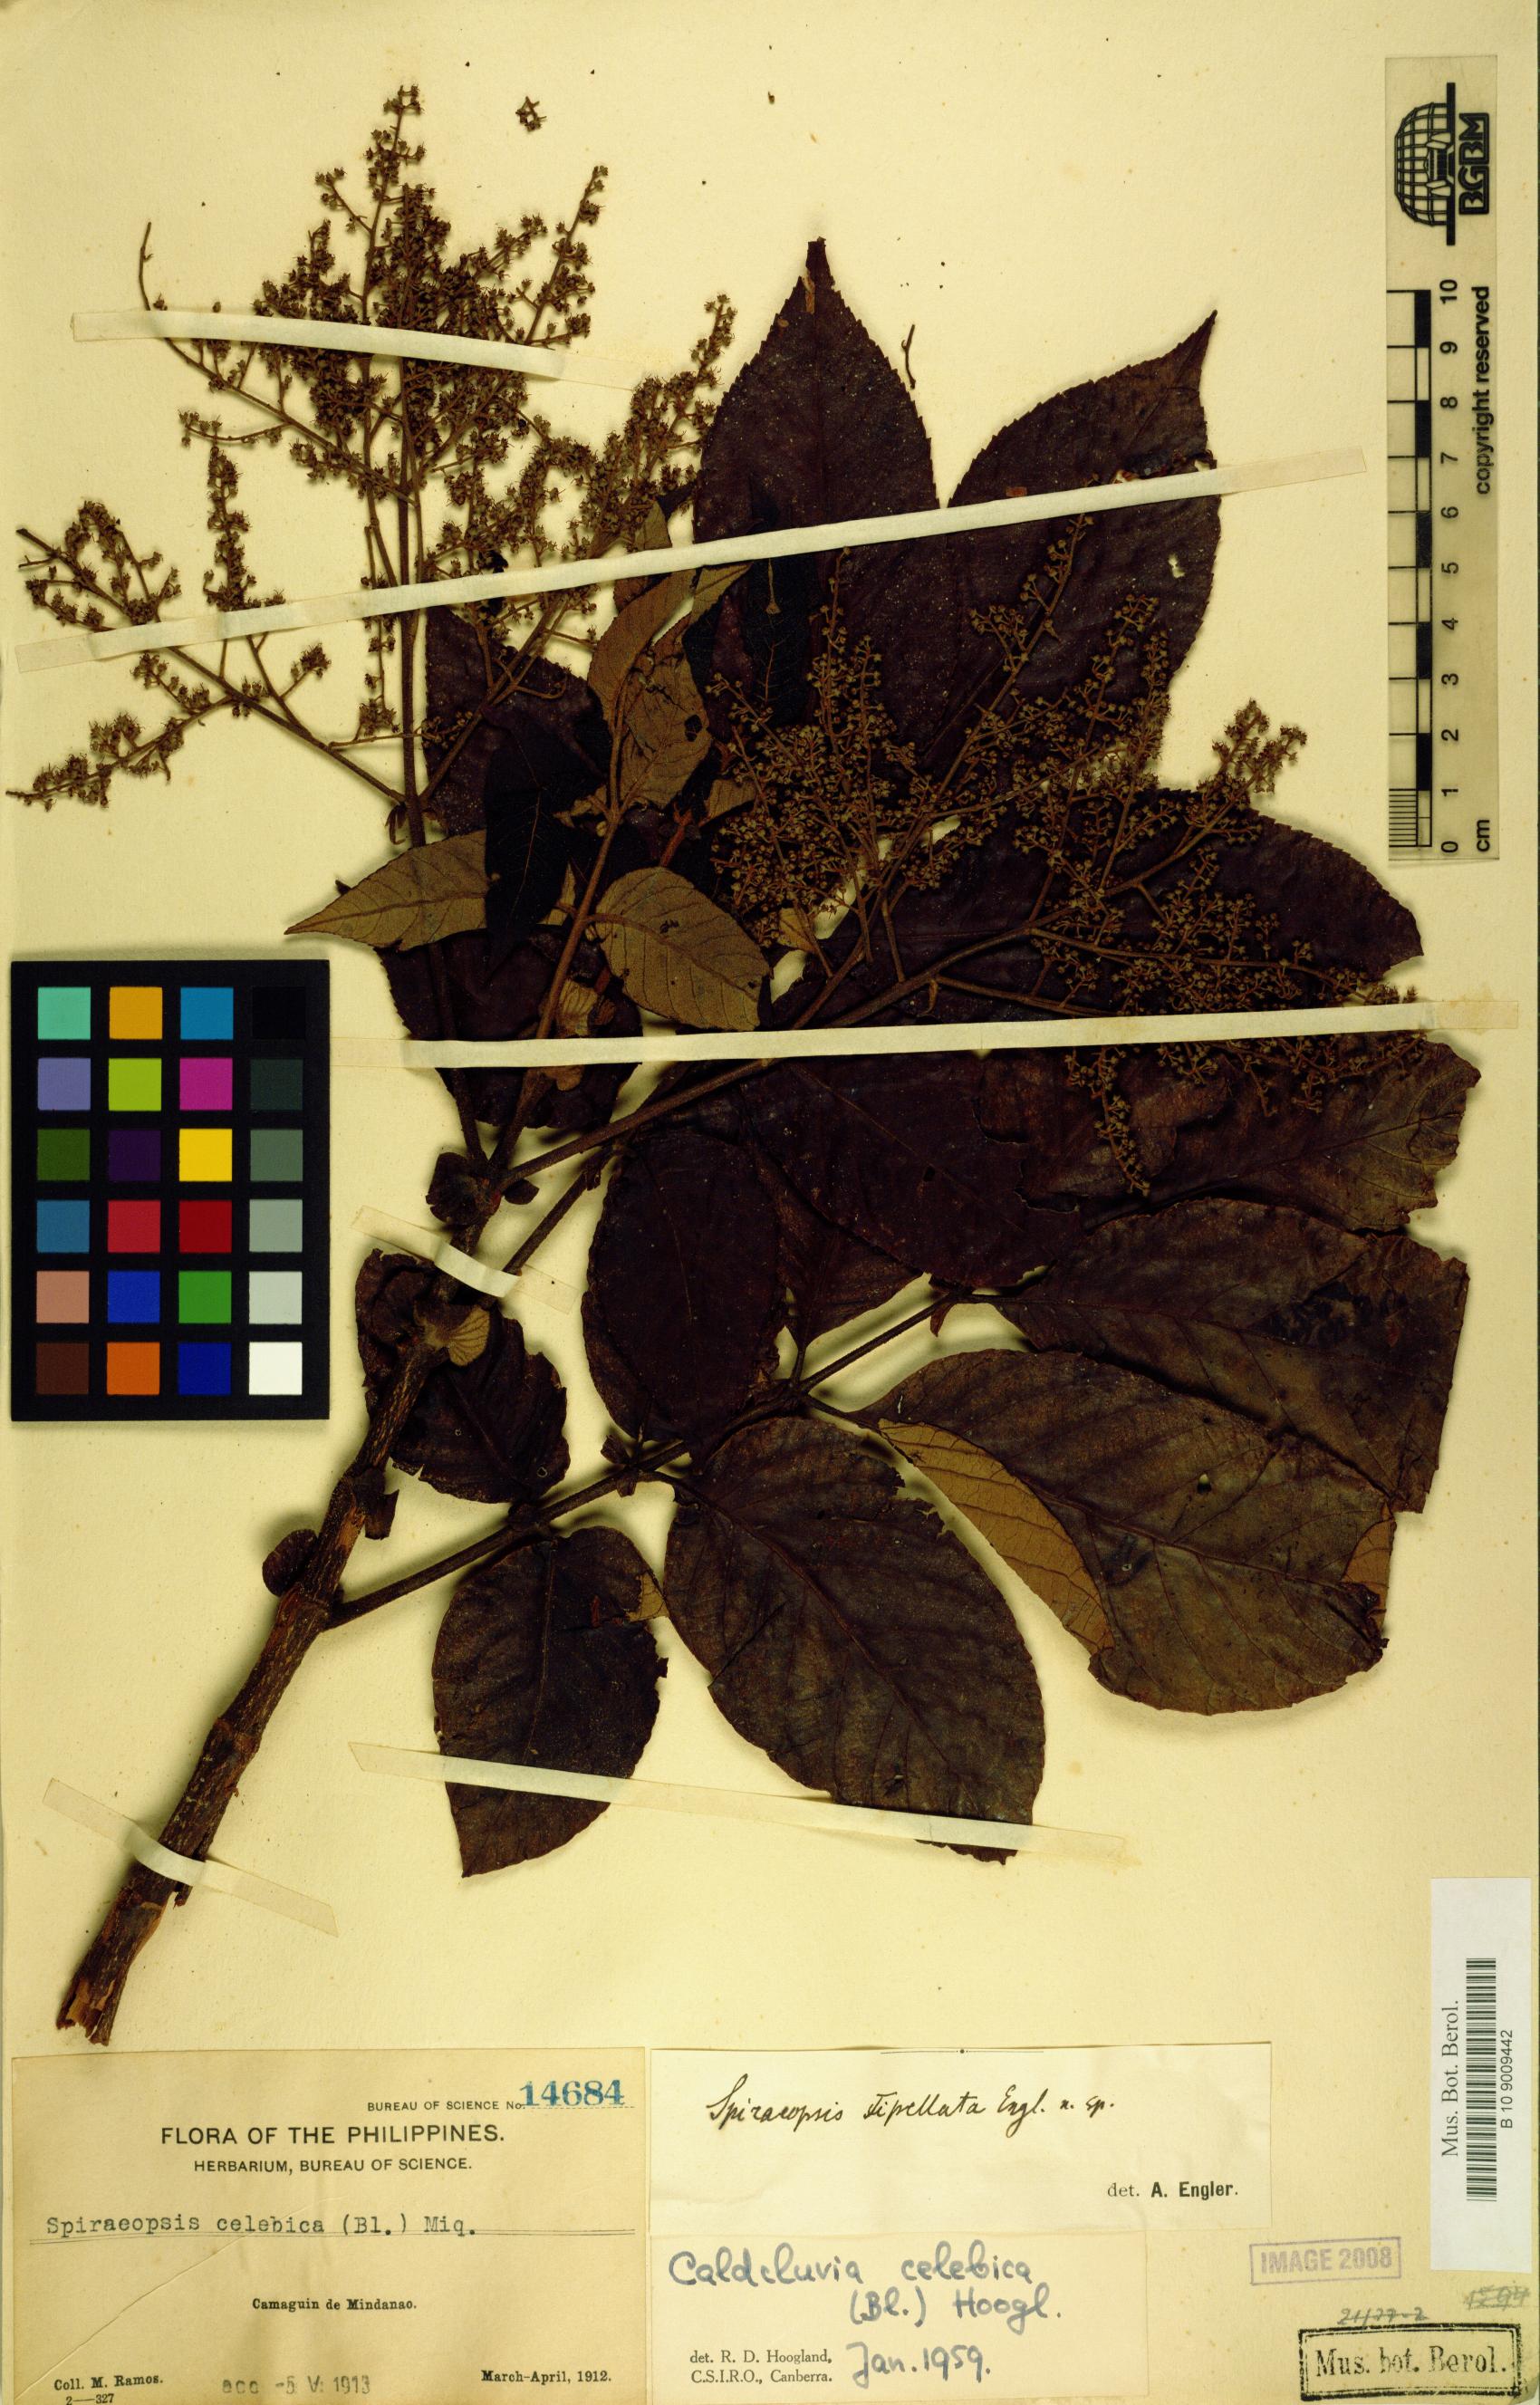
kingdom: Plantae
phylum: Tracheophyta
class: Magnoliopsida
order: Oxalidales
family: Cunoniaceae
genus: Ackama
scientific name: Ackama celebica
